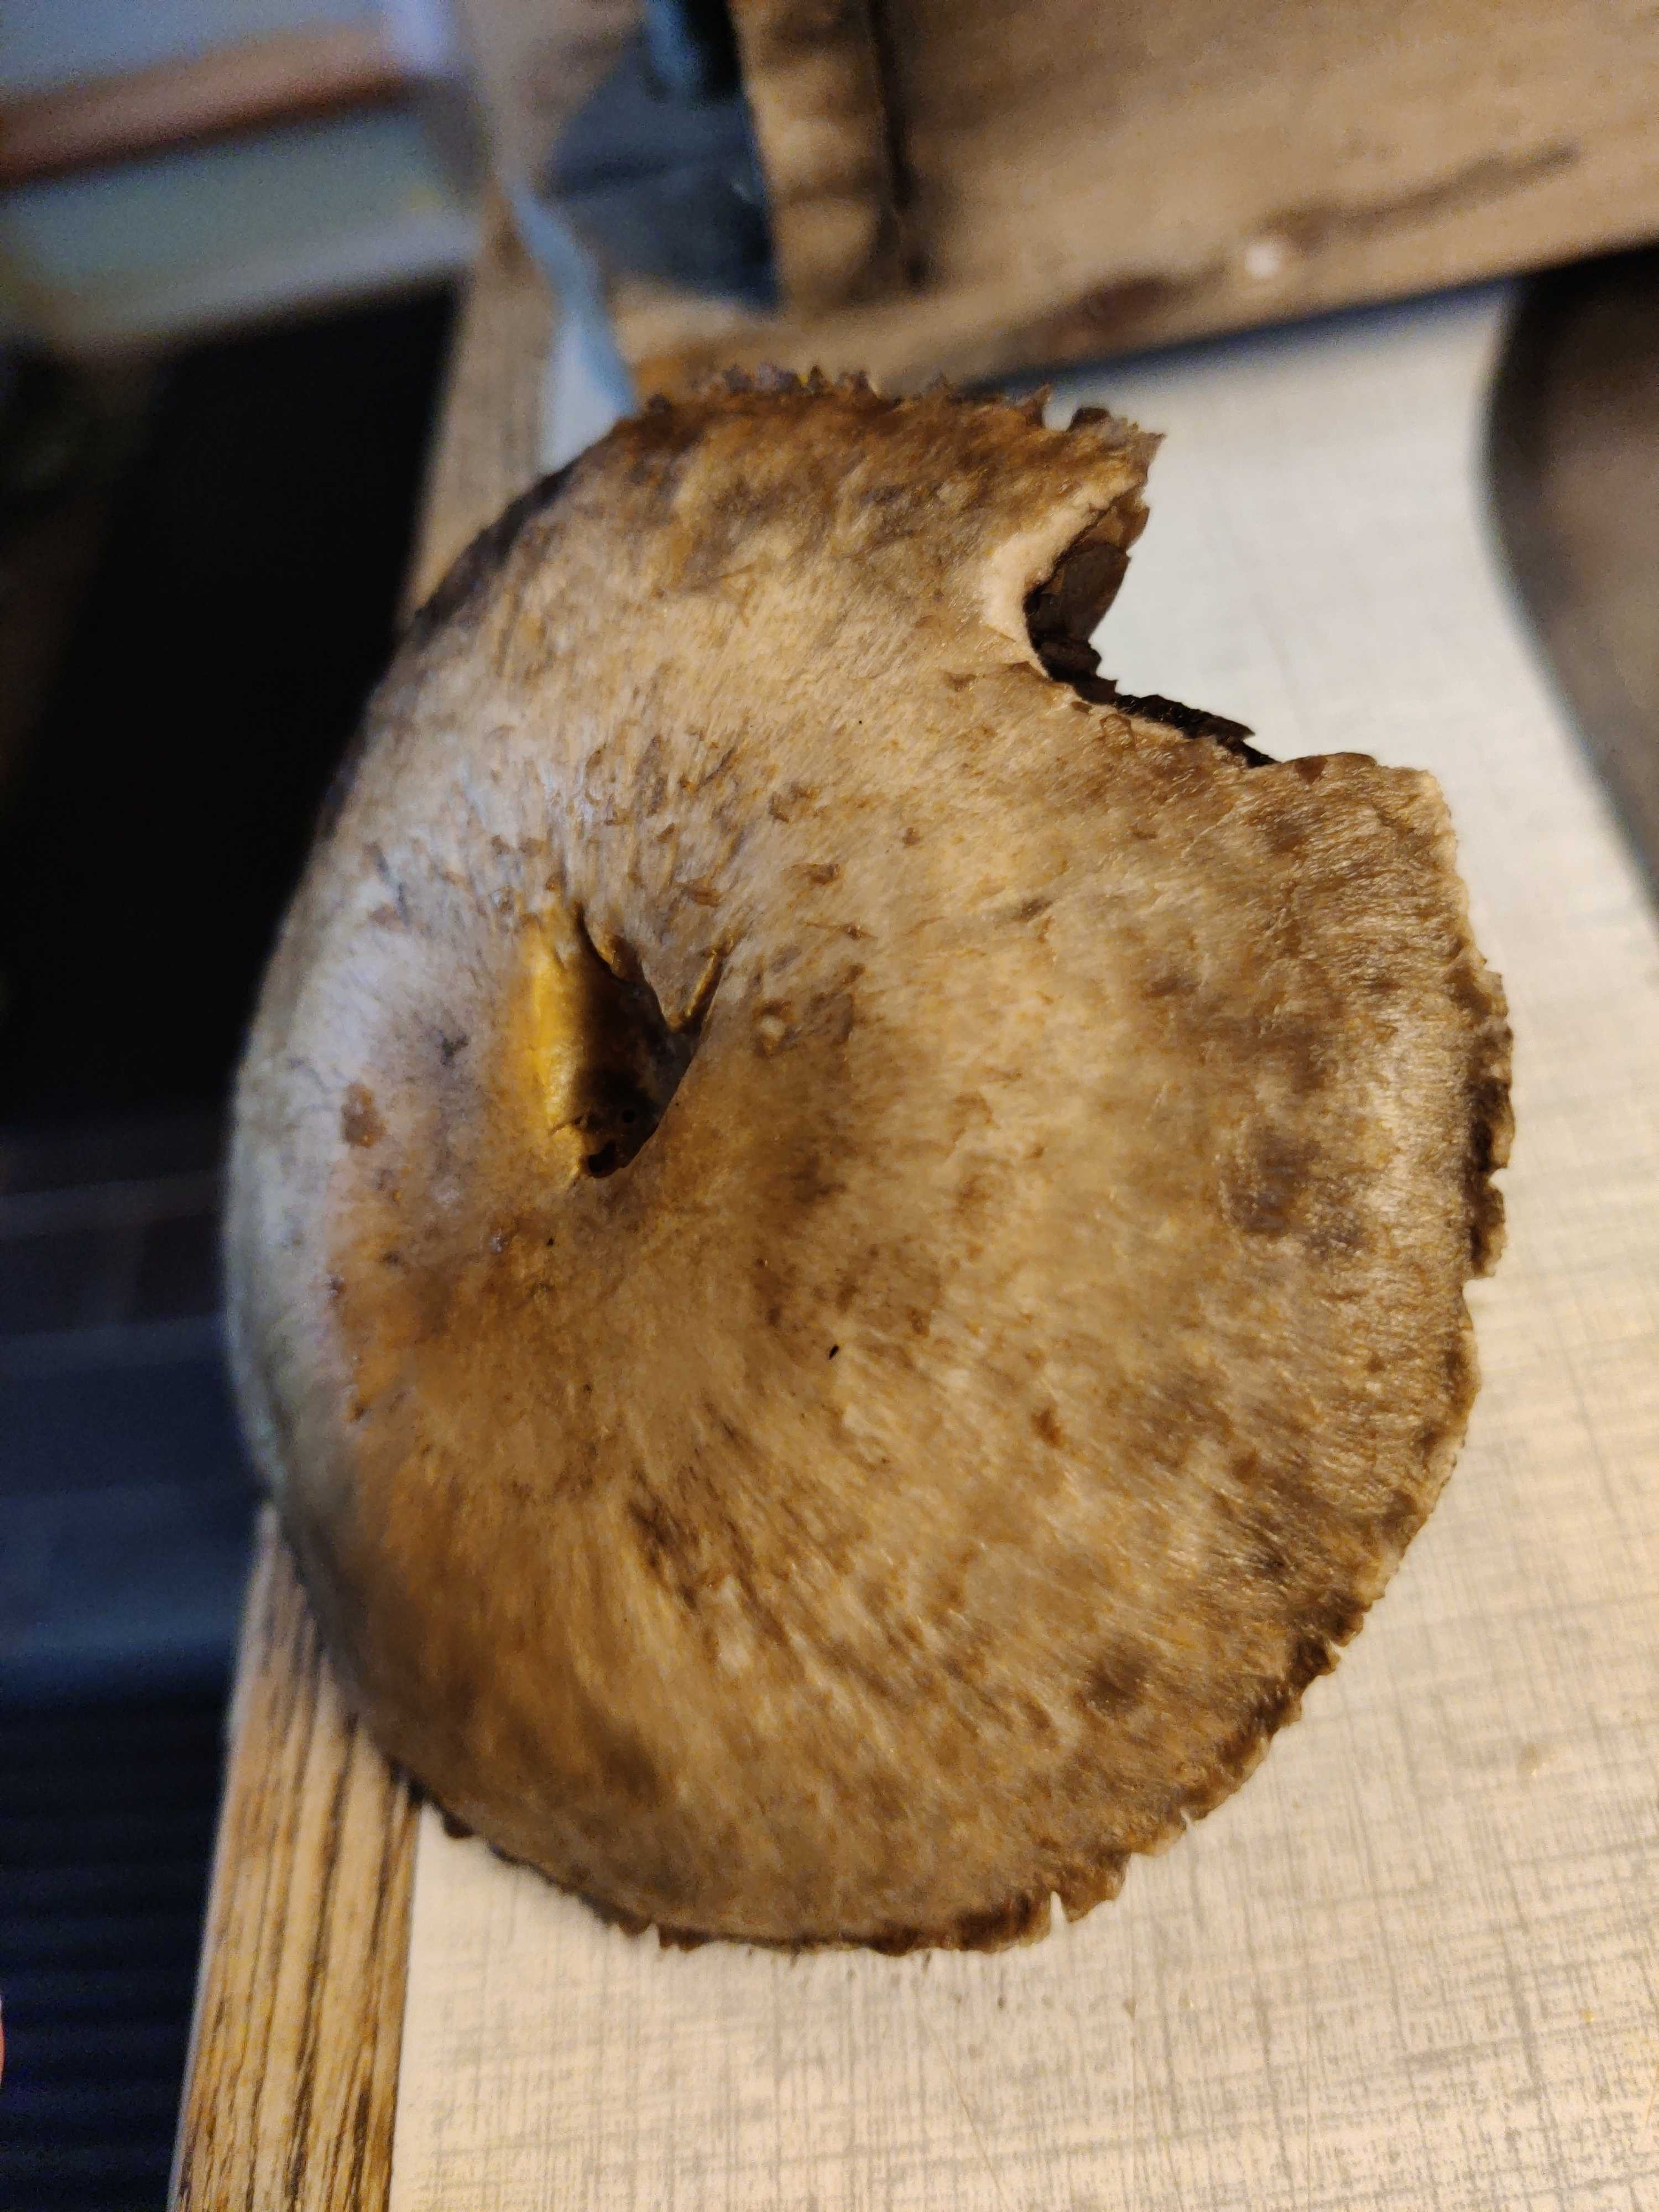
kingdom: Fungi
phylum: Basidiomycota
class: Agaricomycetes
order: Agaricales
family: Agaricaceae
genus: Agaricus
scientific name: Agaricus
